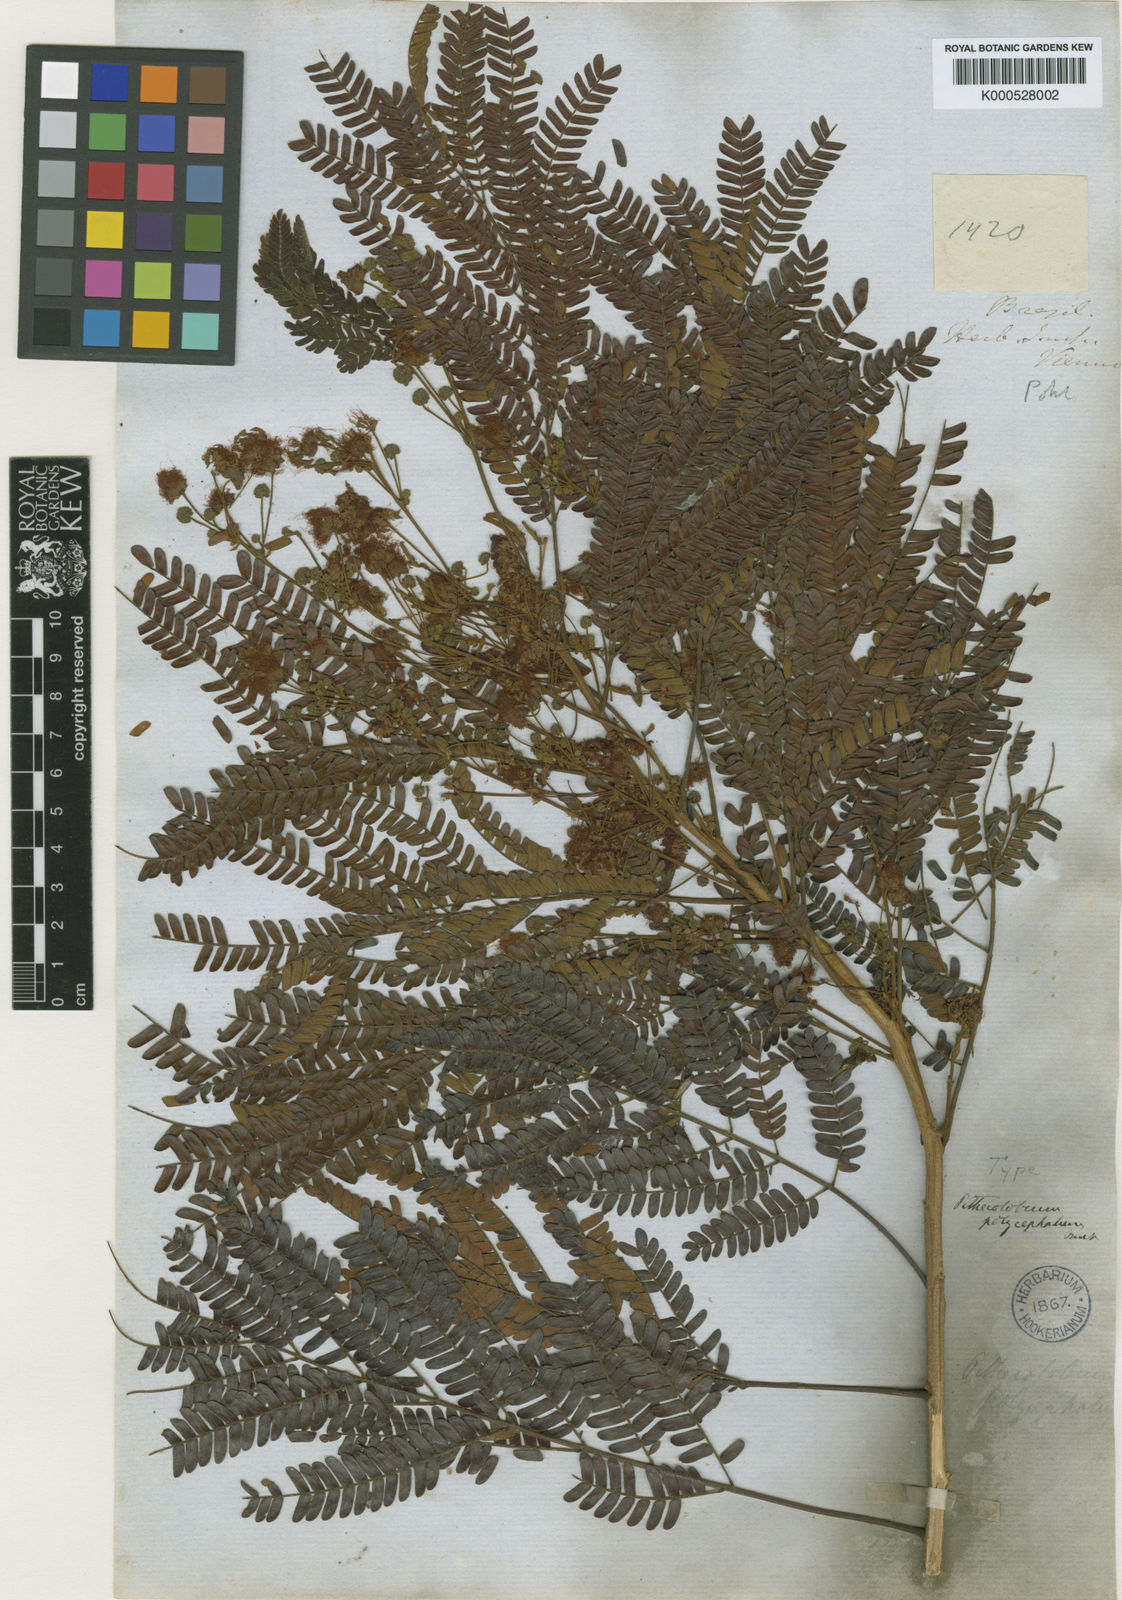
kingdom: Plantae
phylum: Tracheophyta
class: Magnoliopsida
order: Fabales
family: Fabaceae
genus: Albizia
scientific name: Albizia polycephala
